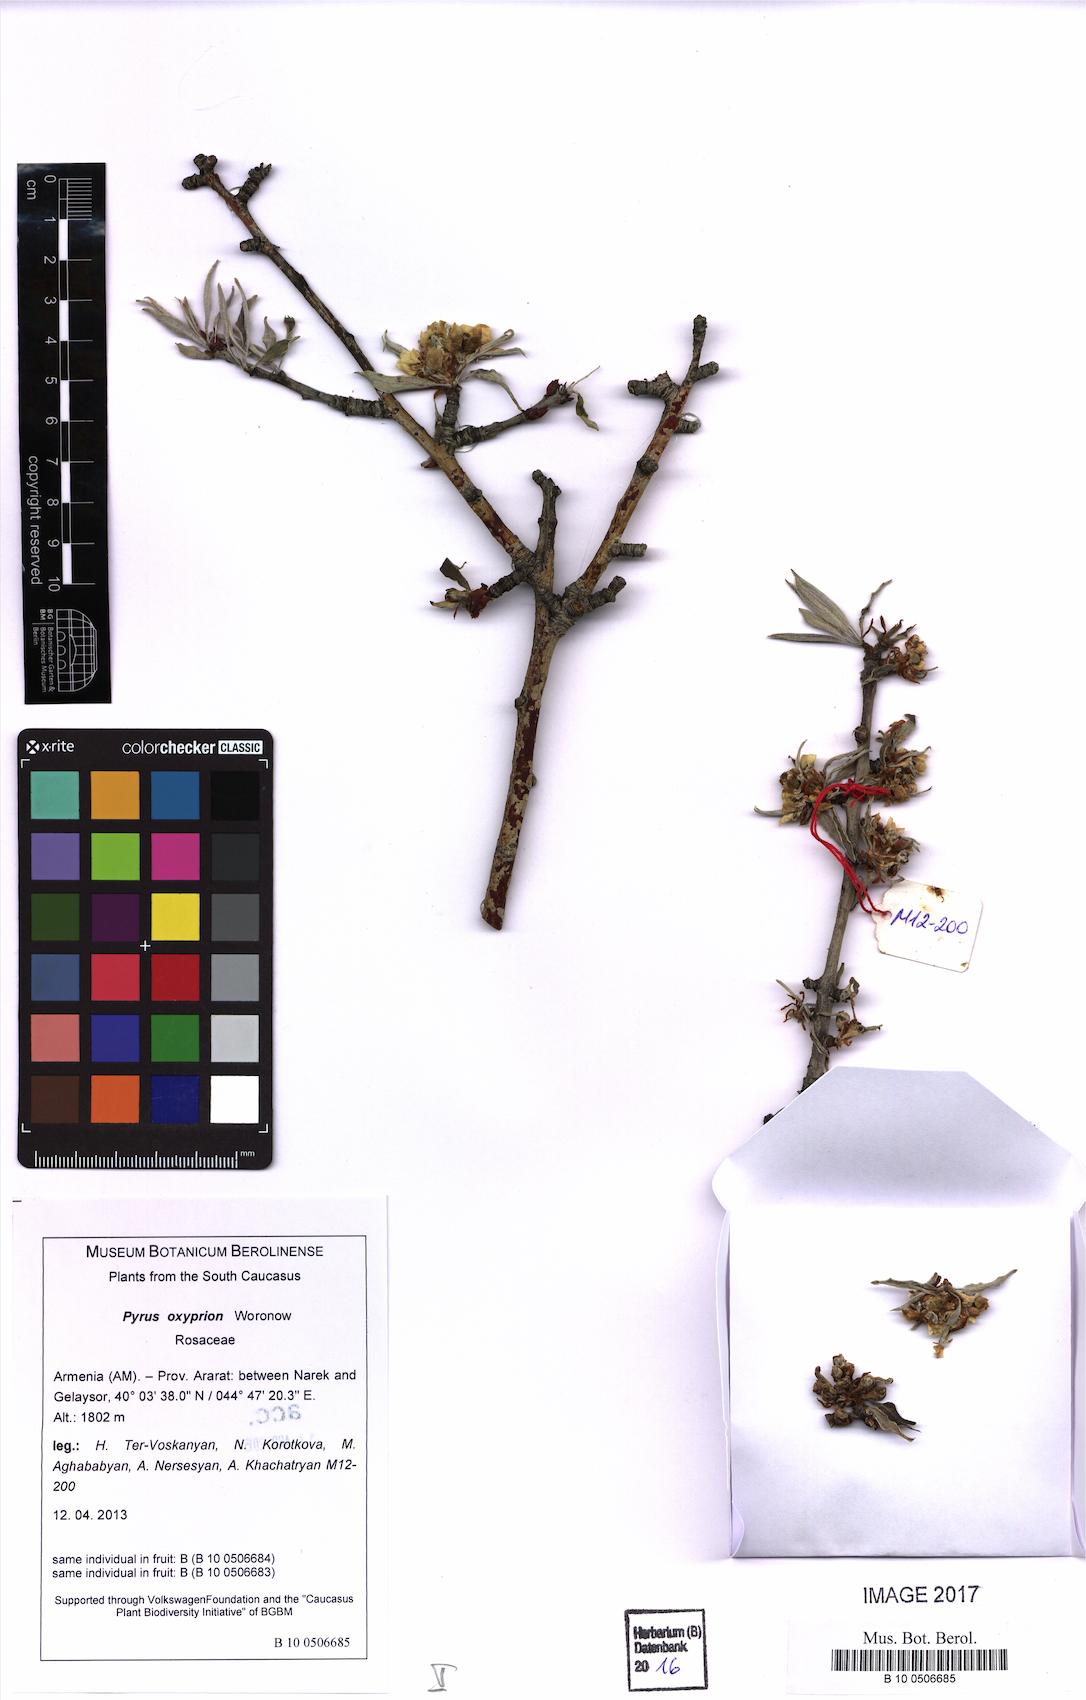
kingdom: Plantae
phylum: Tracheophyta
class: Magnoliopsida
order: Rosales
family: Rosaceae
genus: Pyrus
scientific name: Pyrus oxyprion
